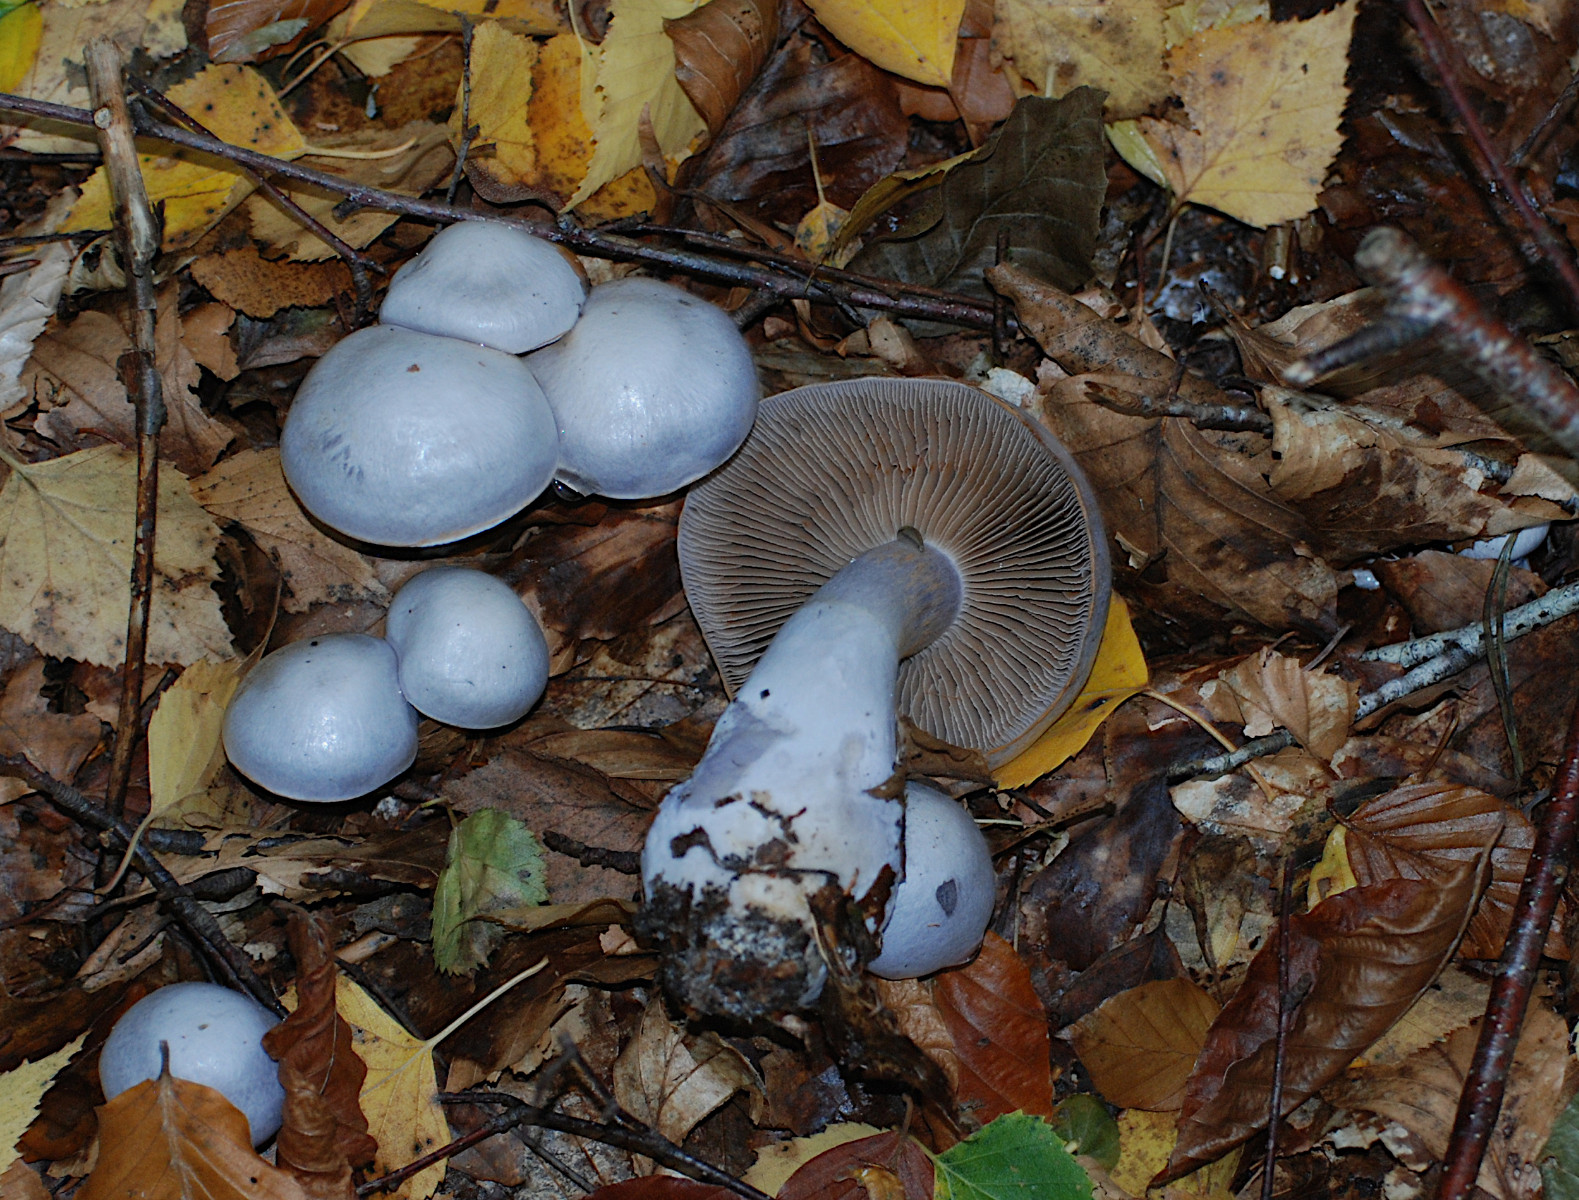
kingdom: Fungi
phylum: Basidiomycota
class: Agaricomycetes
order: Agaricales
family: Cortinariaceae
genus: Cortinarius
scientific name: Cortinarius alboviolaceus
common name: lysviolet slørhat
